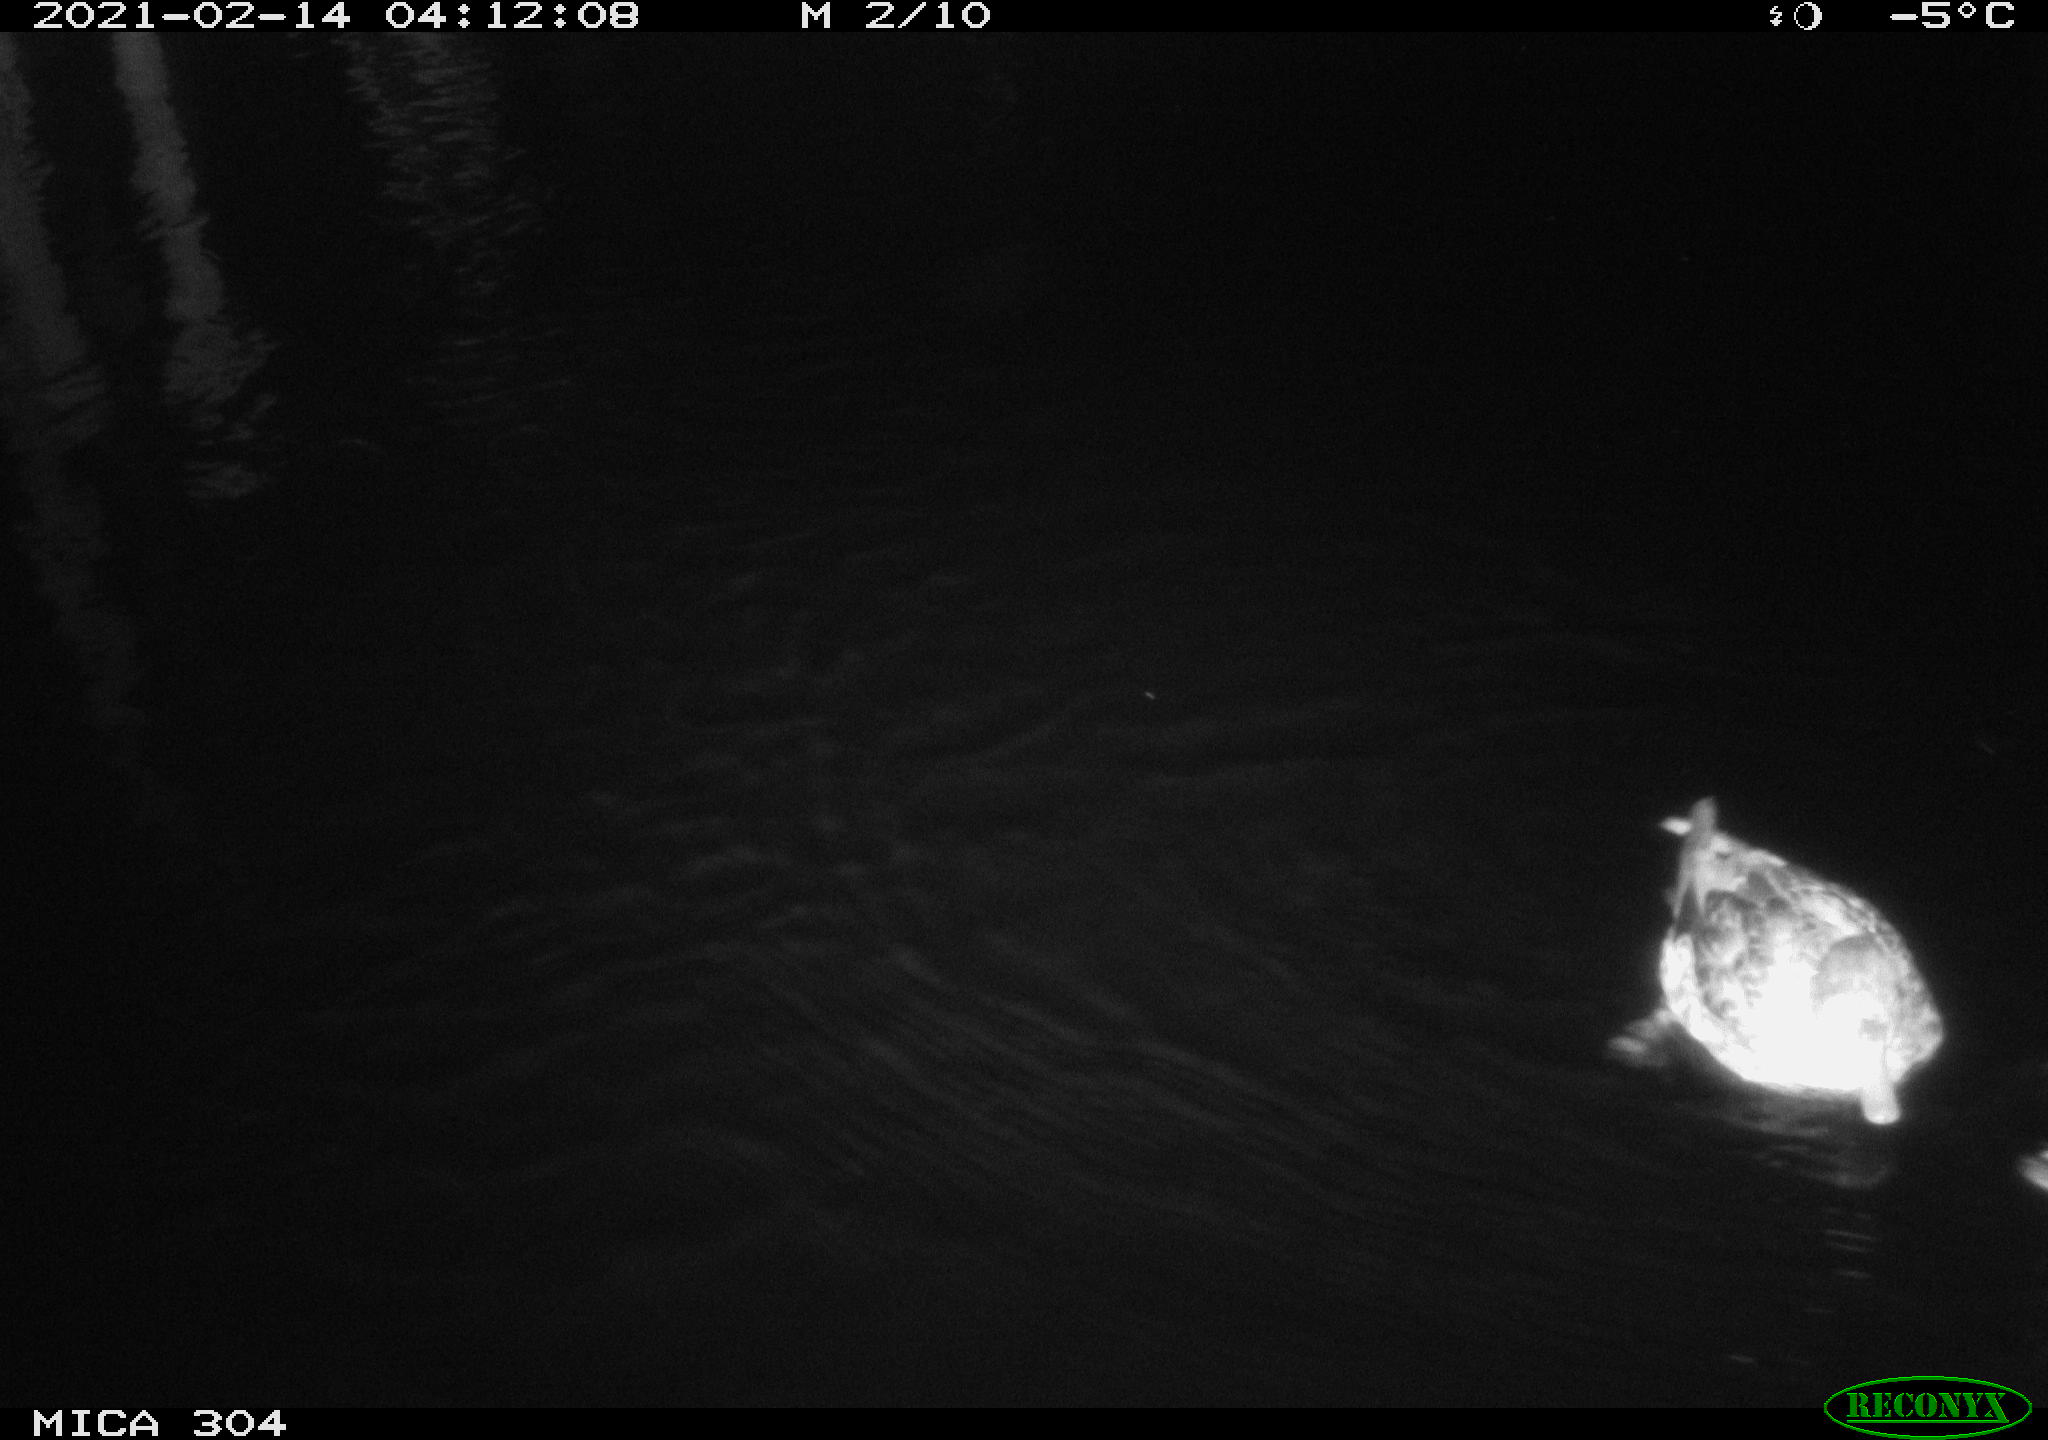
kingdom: Animalia
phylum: Chordata
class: Aves
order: Anseriformes
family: Anatidae
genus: Anas
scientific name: Anas platyrhynchos
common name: Mallard
